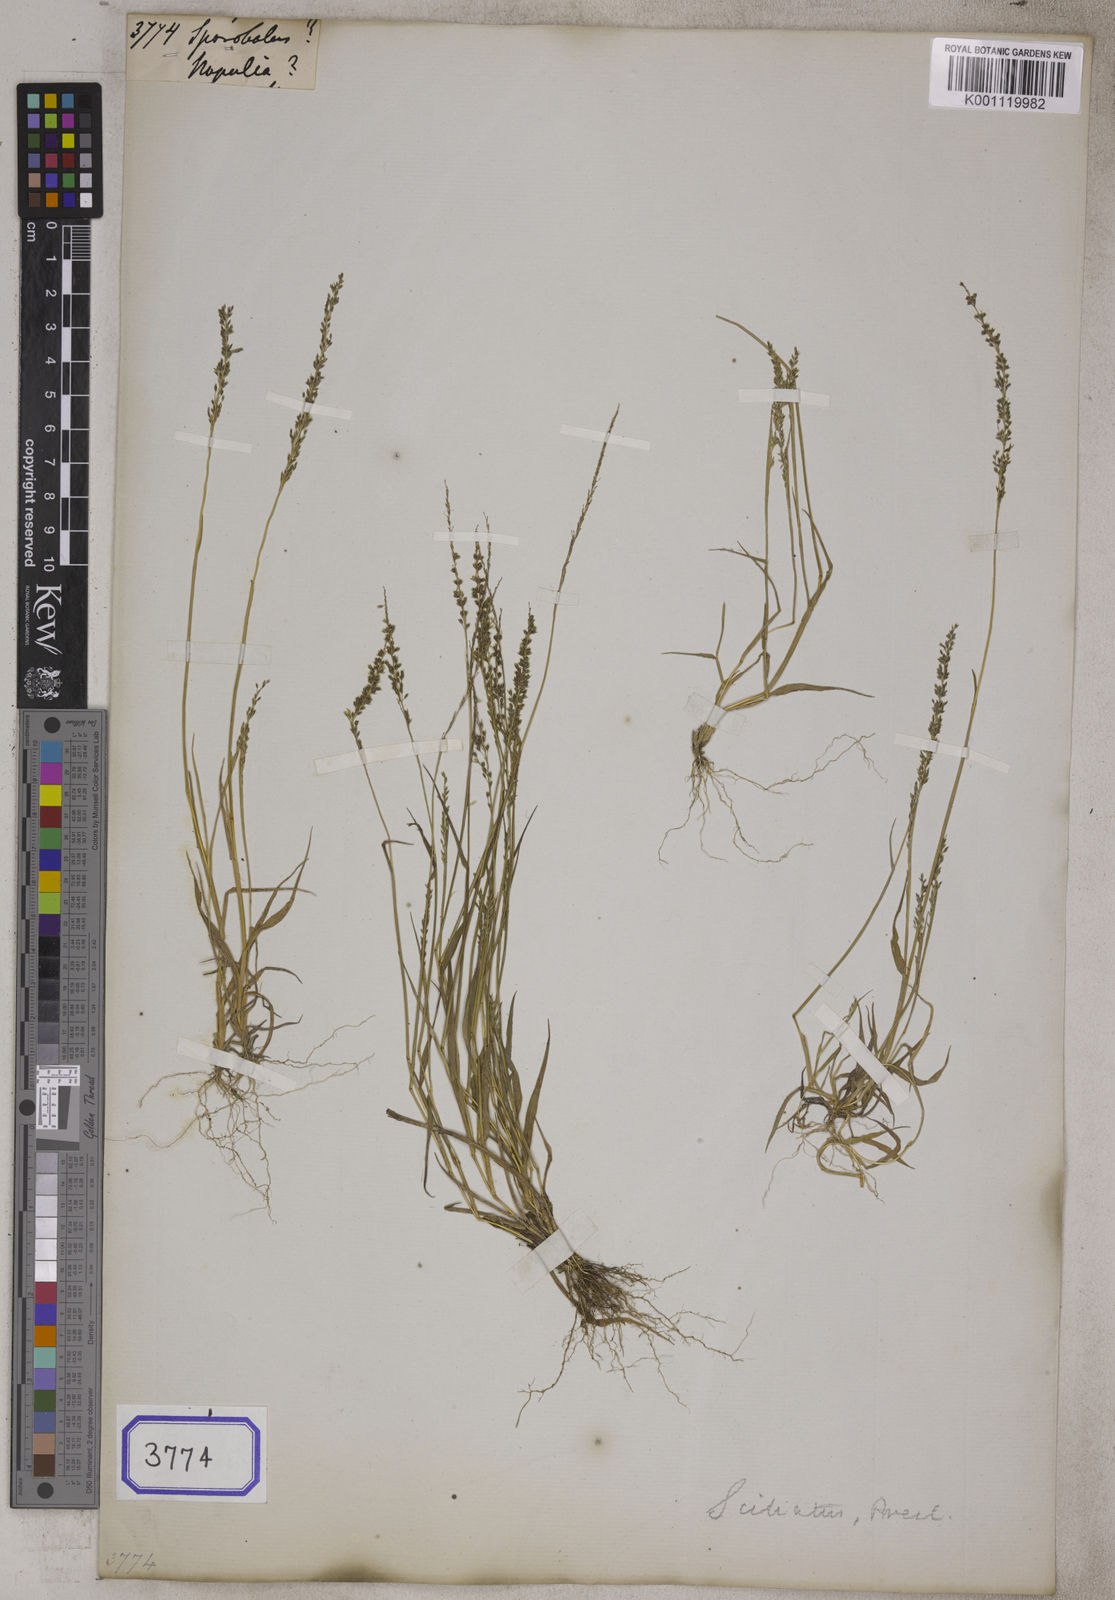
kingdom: Plantae
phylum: Tracheophyta
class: Liliopsida
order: Poales
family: Poaceae
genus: Sporobolus
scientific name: Sporobolus
